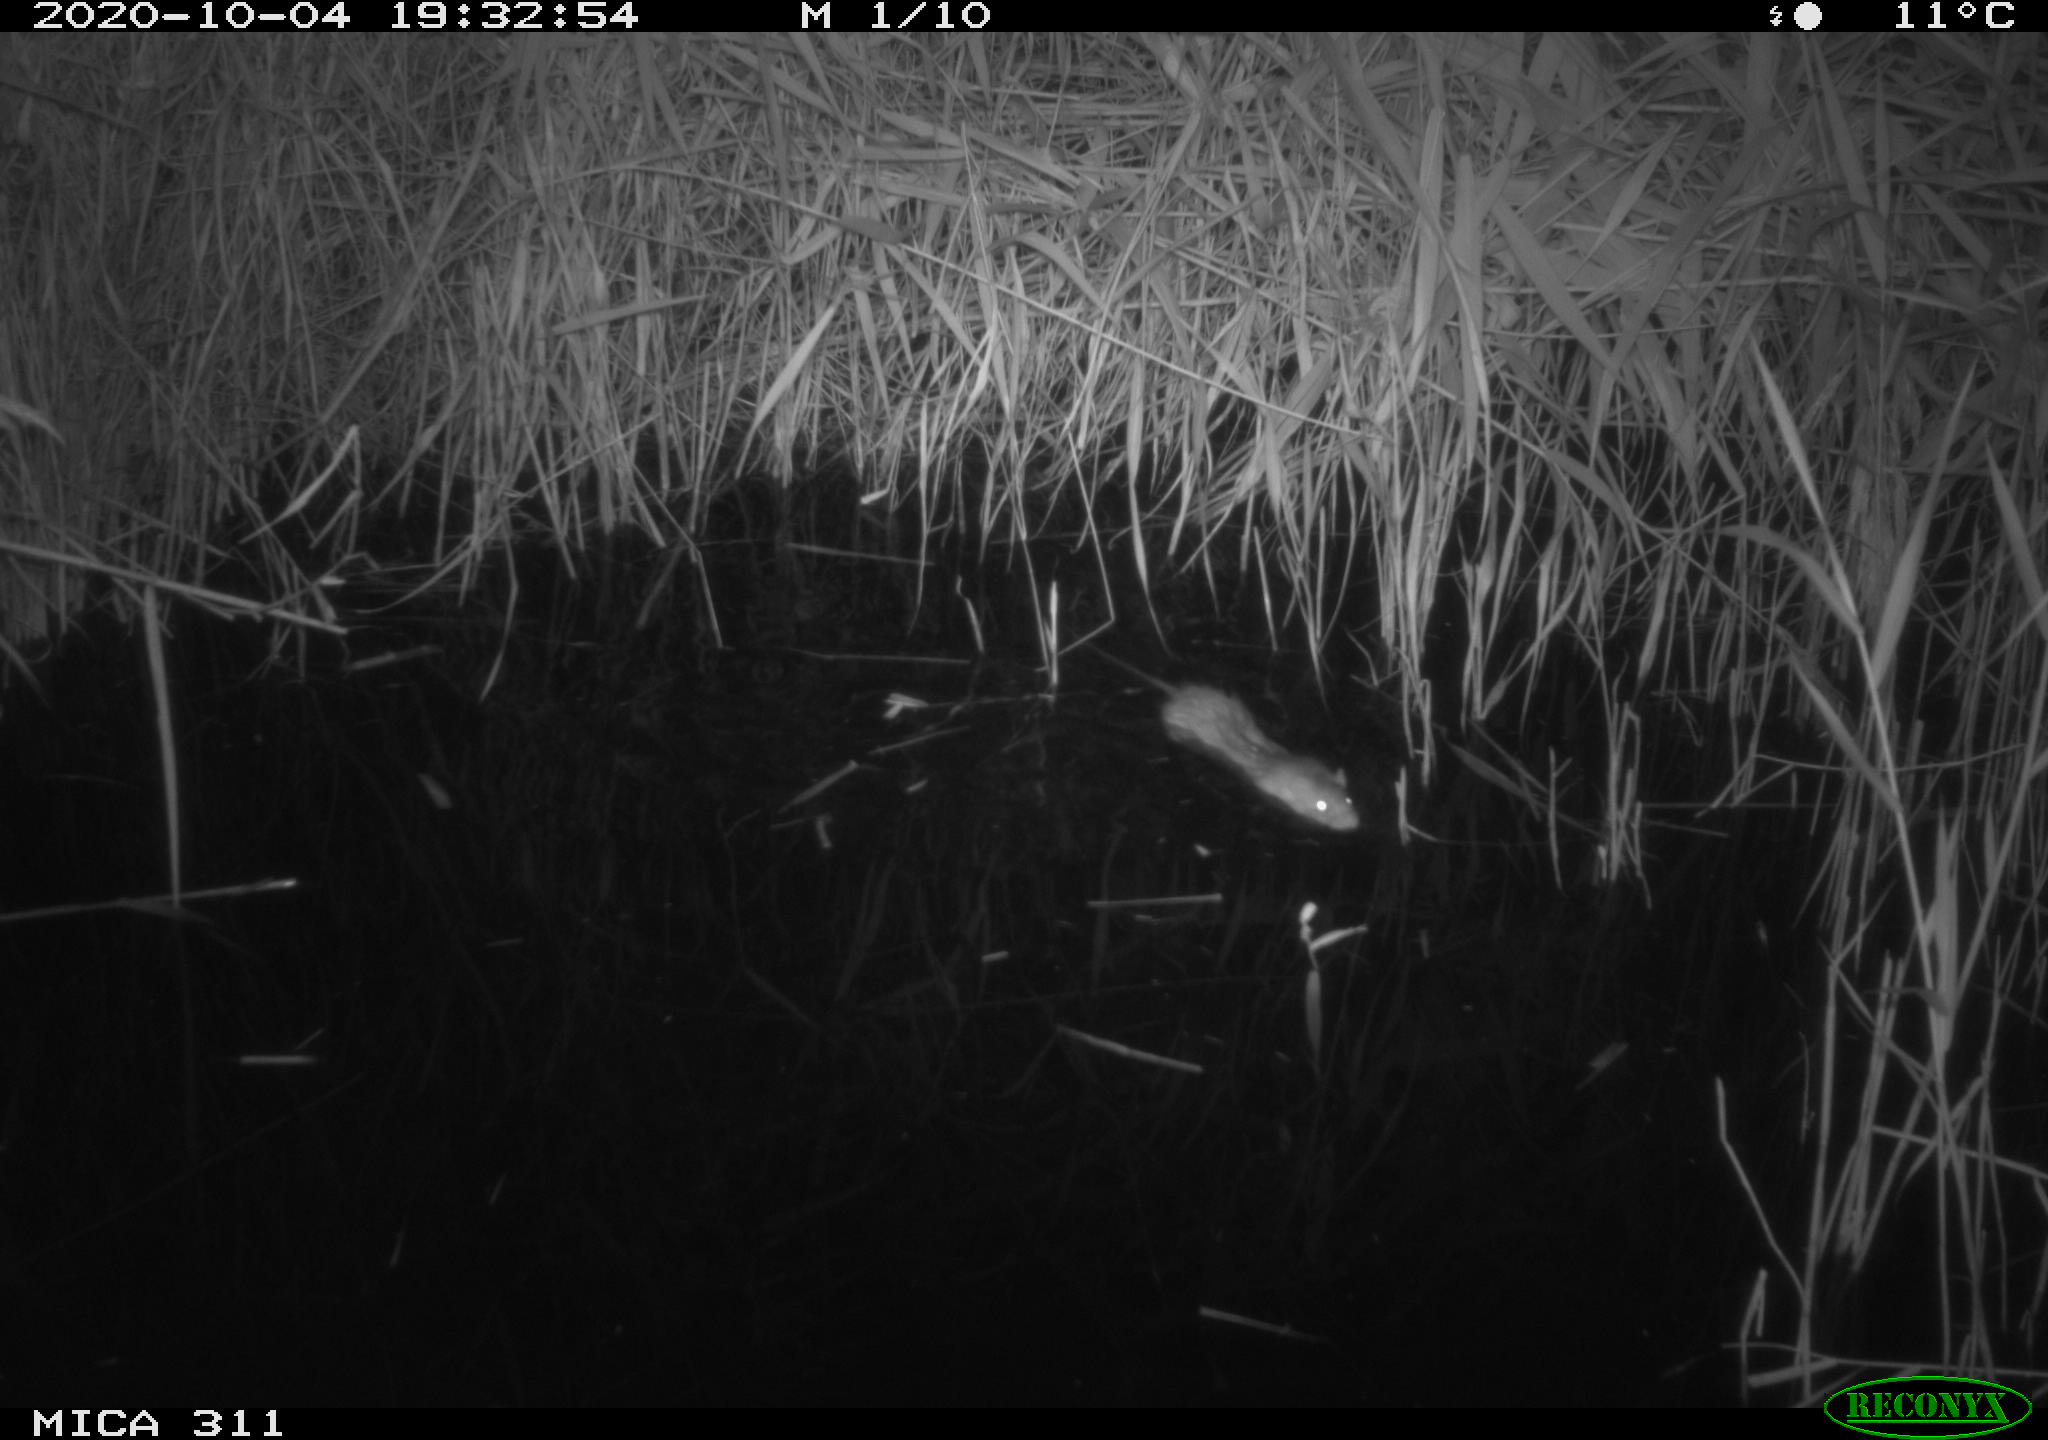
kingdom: Animalia
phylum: Chordata
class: Mammalia
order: Rodentia
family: Muridae
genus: Rattus
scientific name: Rattus norvegicus
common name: Brown rat
